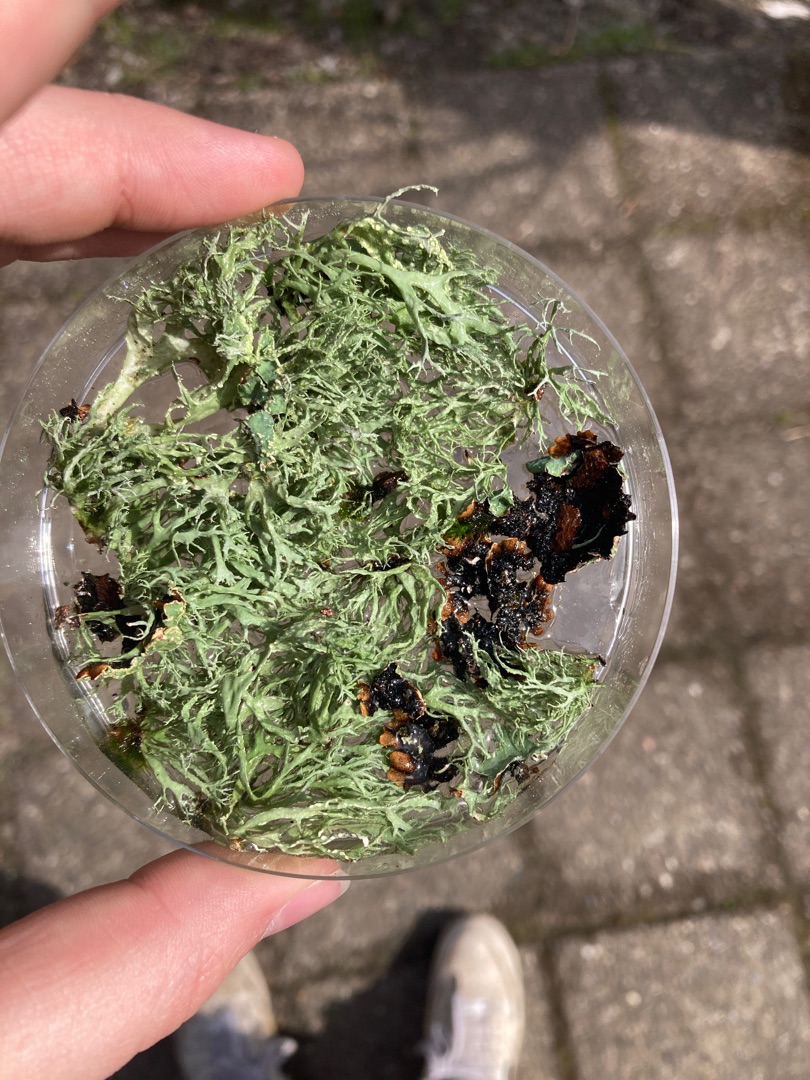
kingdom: Fungi
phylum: Ascomycota
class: Lecanoromycetes
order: Lecanorales
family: Ramalinaceae
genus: Ramalina
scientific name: Ramalina farinacea
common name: Melet grenlav
